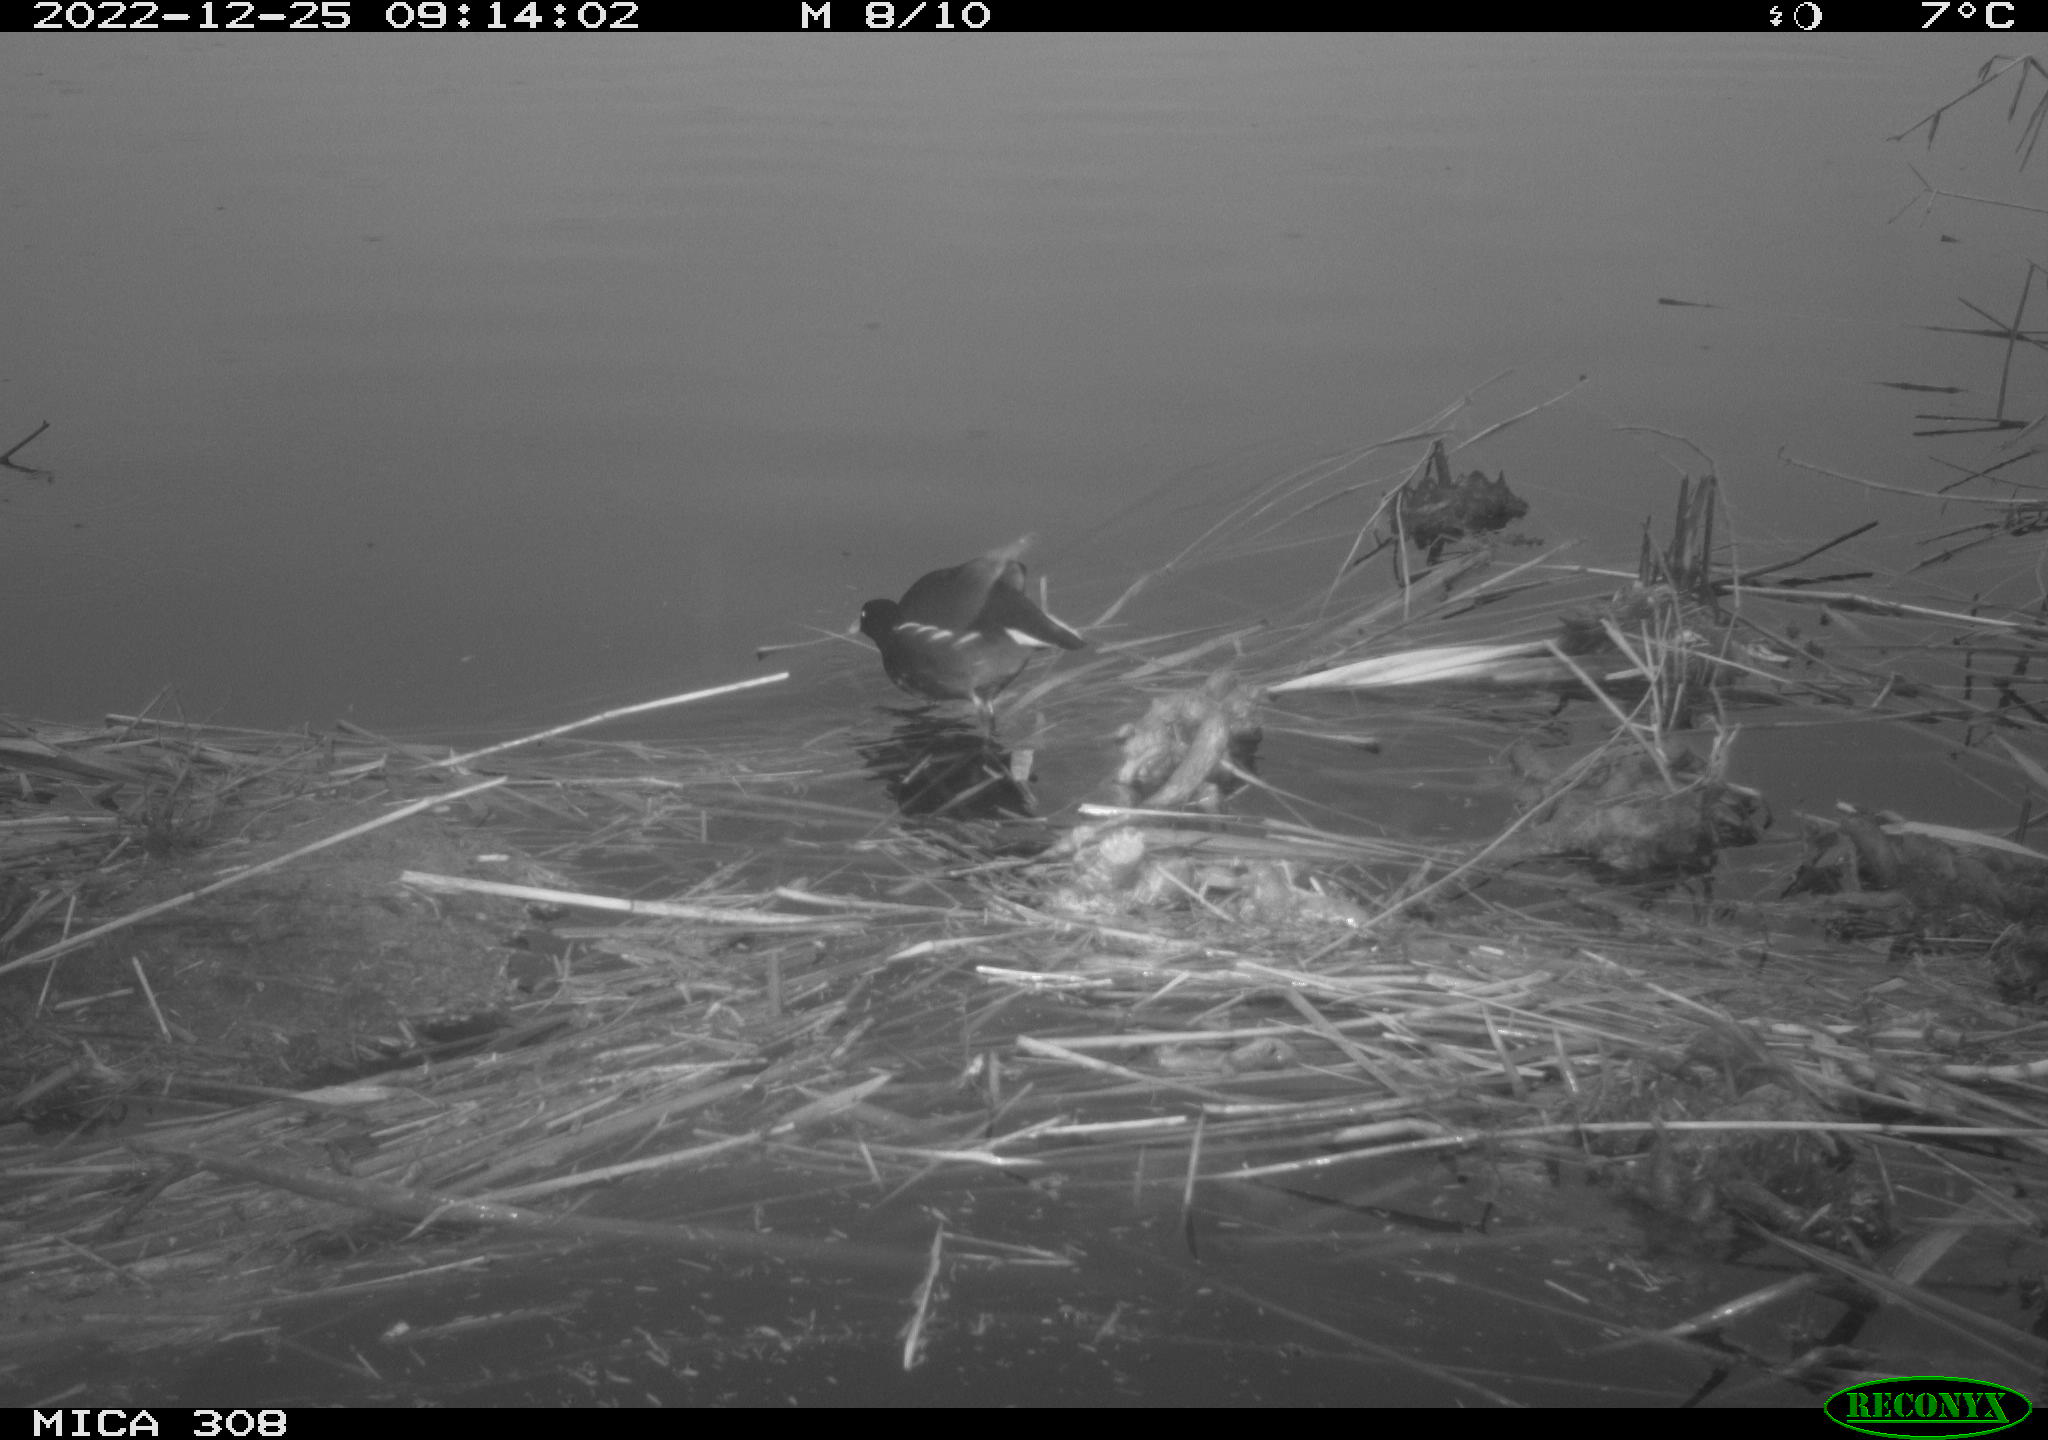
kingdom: Animalia
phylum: Chordata
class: Aves
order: Gruiformes
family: Rallidae
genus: Gallinula
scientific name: Gallinula chloropus
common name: Common moorhen
